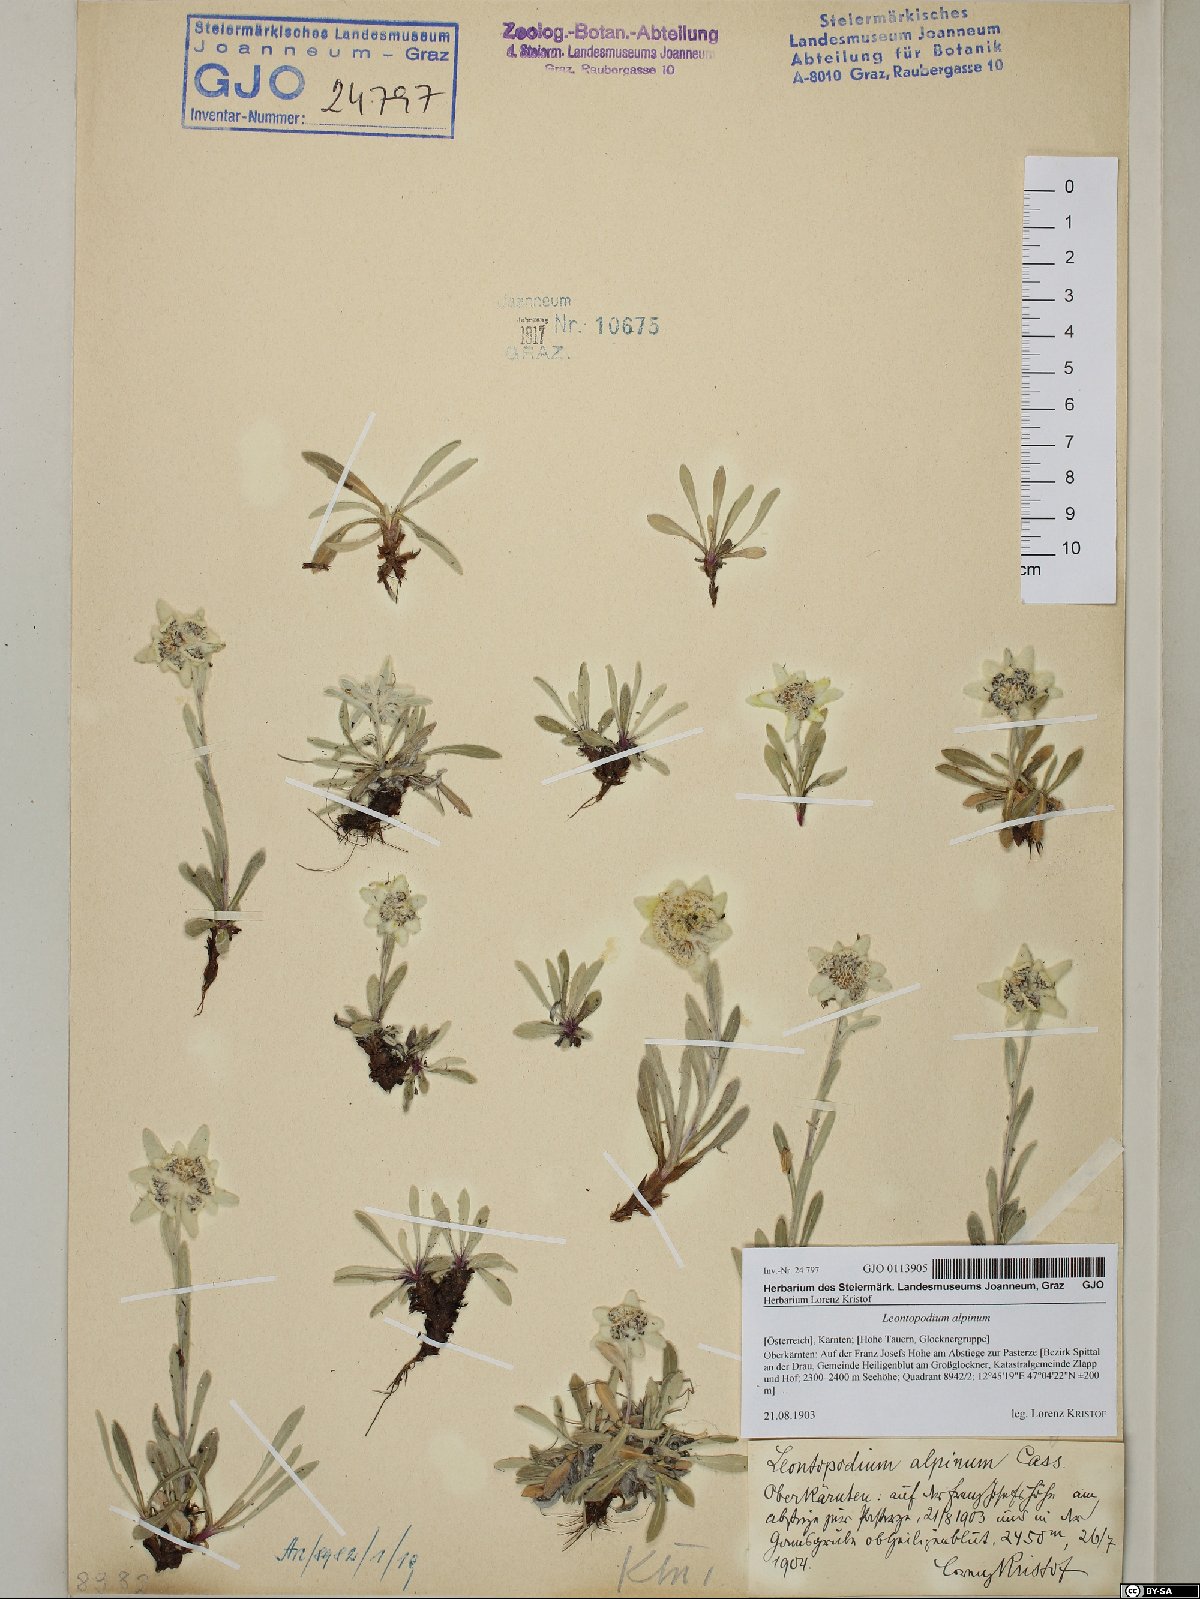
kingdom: Plantae
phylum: Tracheophyta
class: Magnoliopsida
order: Asterales
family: Asteraceae
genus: Leontopodium
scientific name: Leontopodium nivale
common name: Edelweiss
